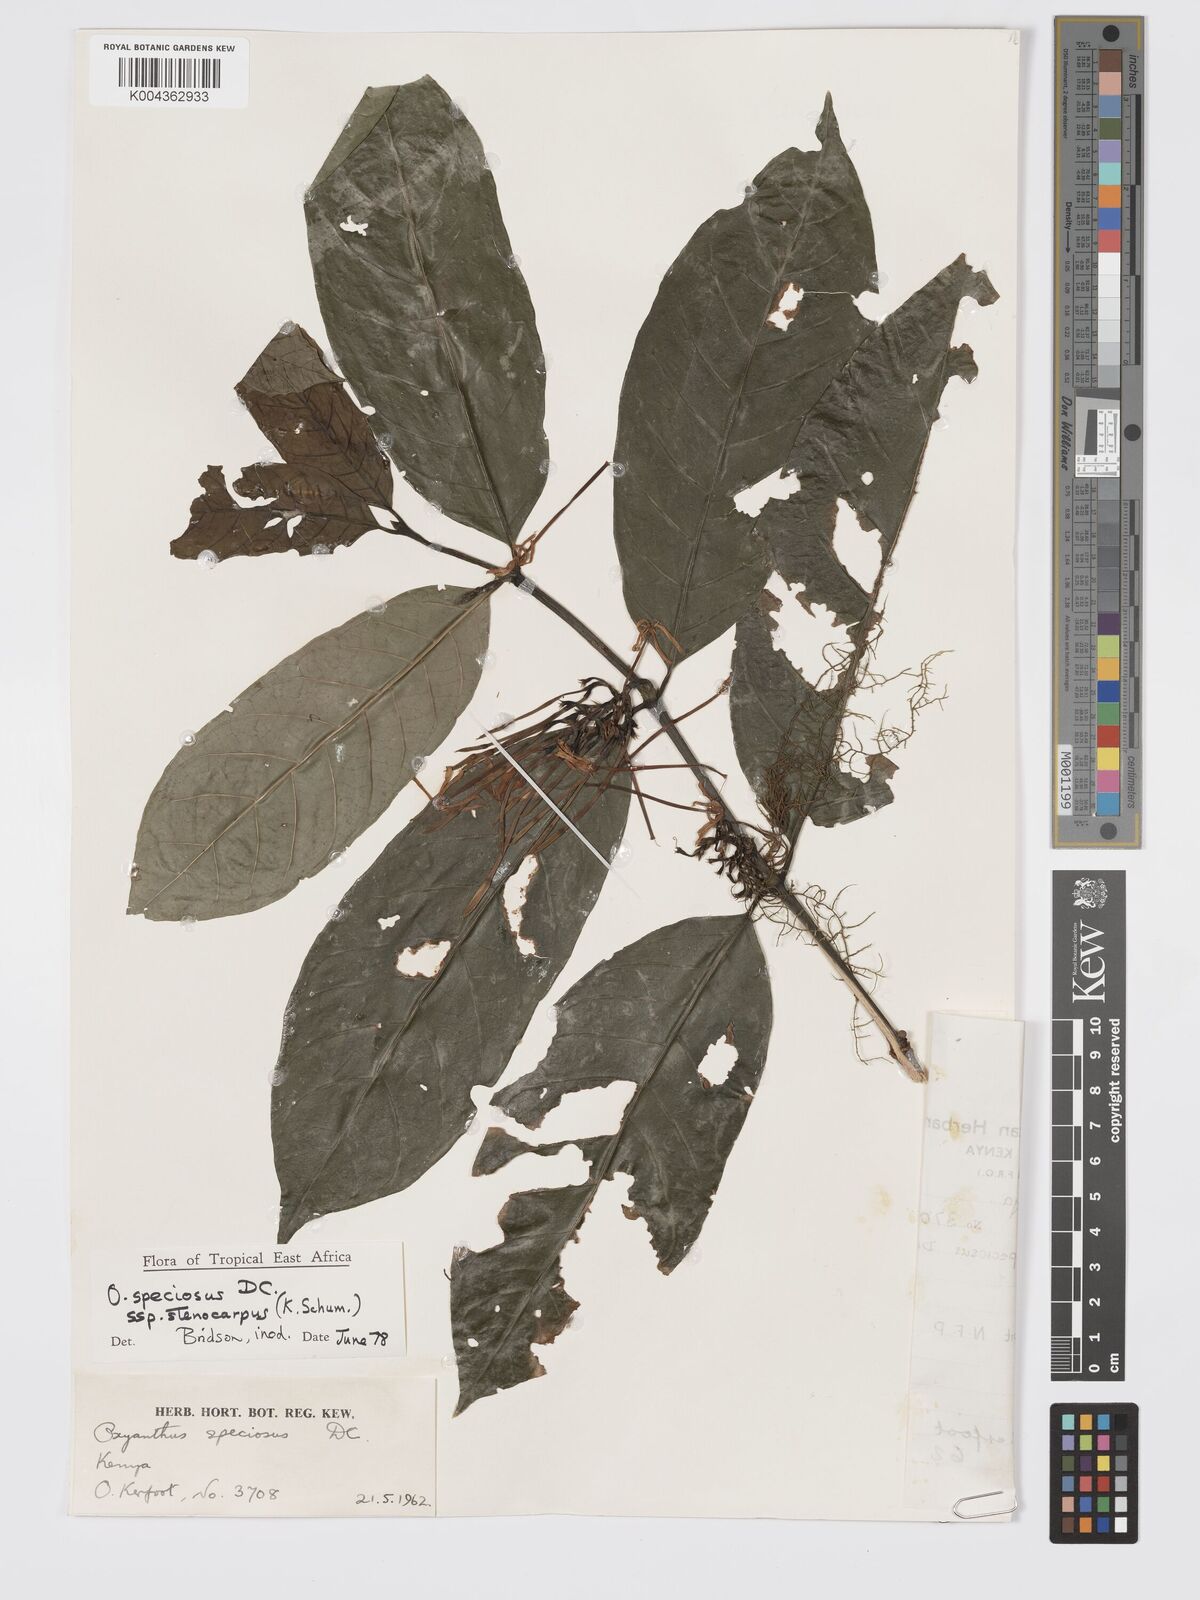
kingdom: Plantae
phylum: Tracheophyta
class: Magnoliopsida
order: Gentianales
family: Rubiaceae
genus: Oxyanthus
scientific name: Oxyanthus speciosus
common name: Whipstick loquat
